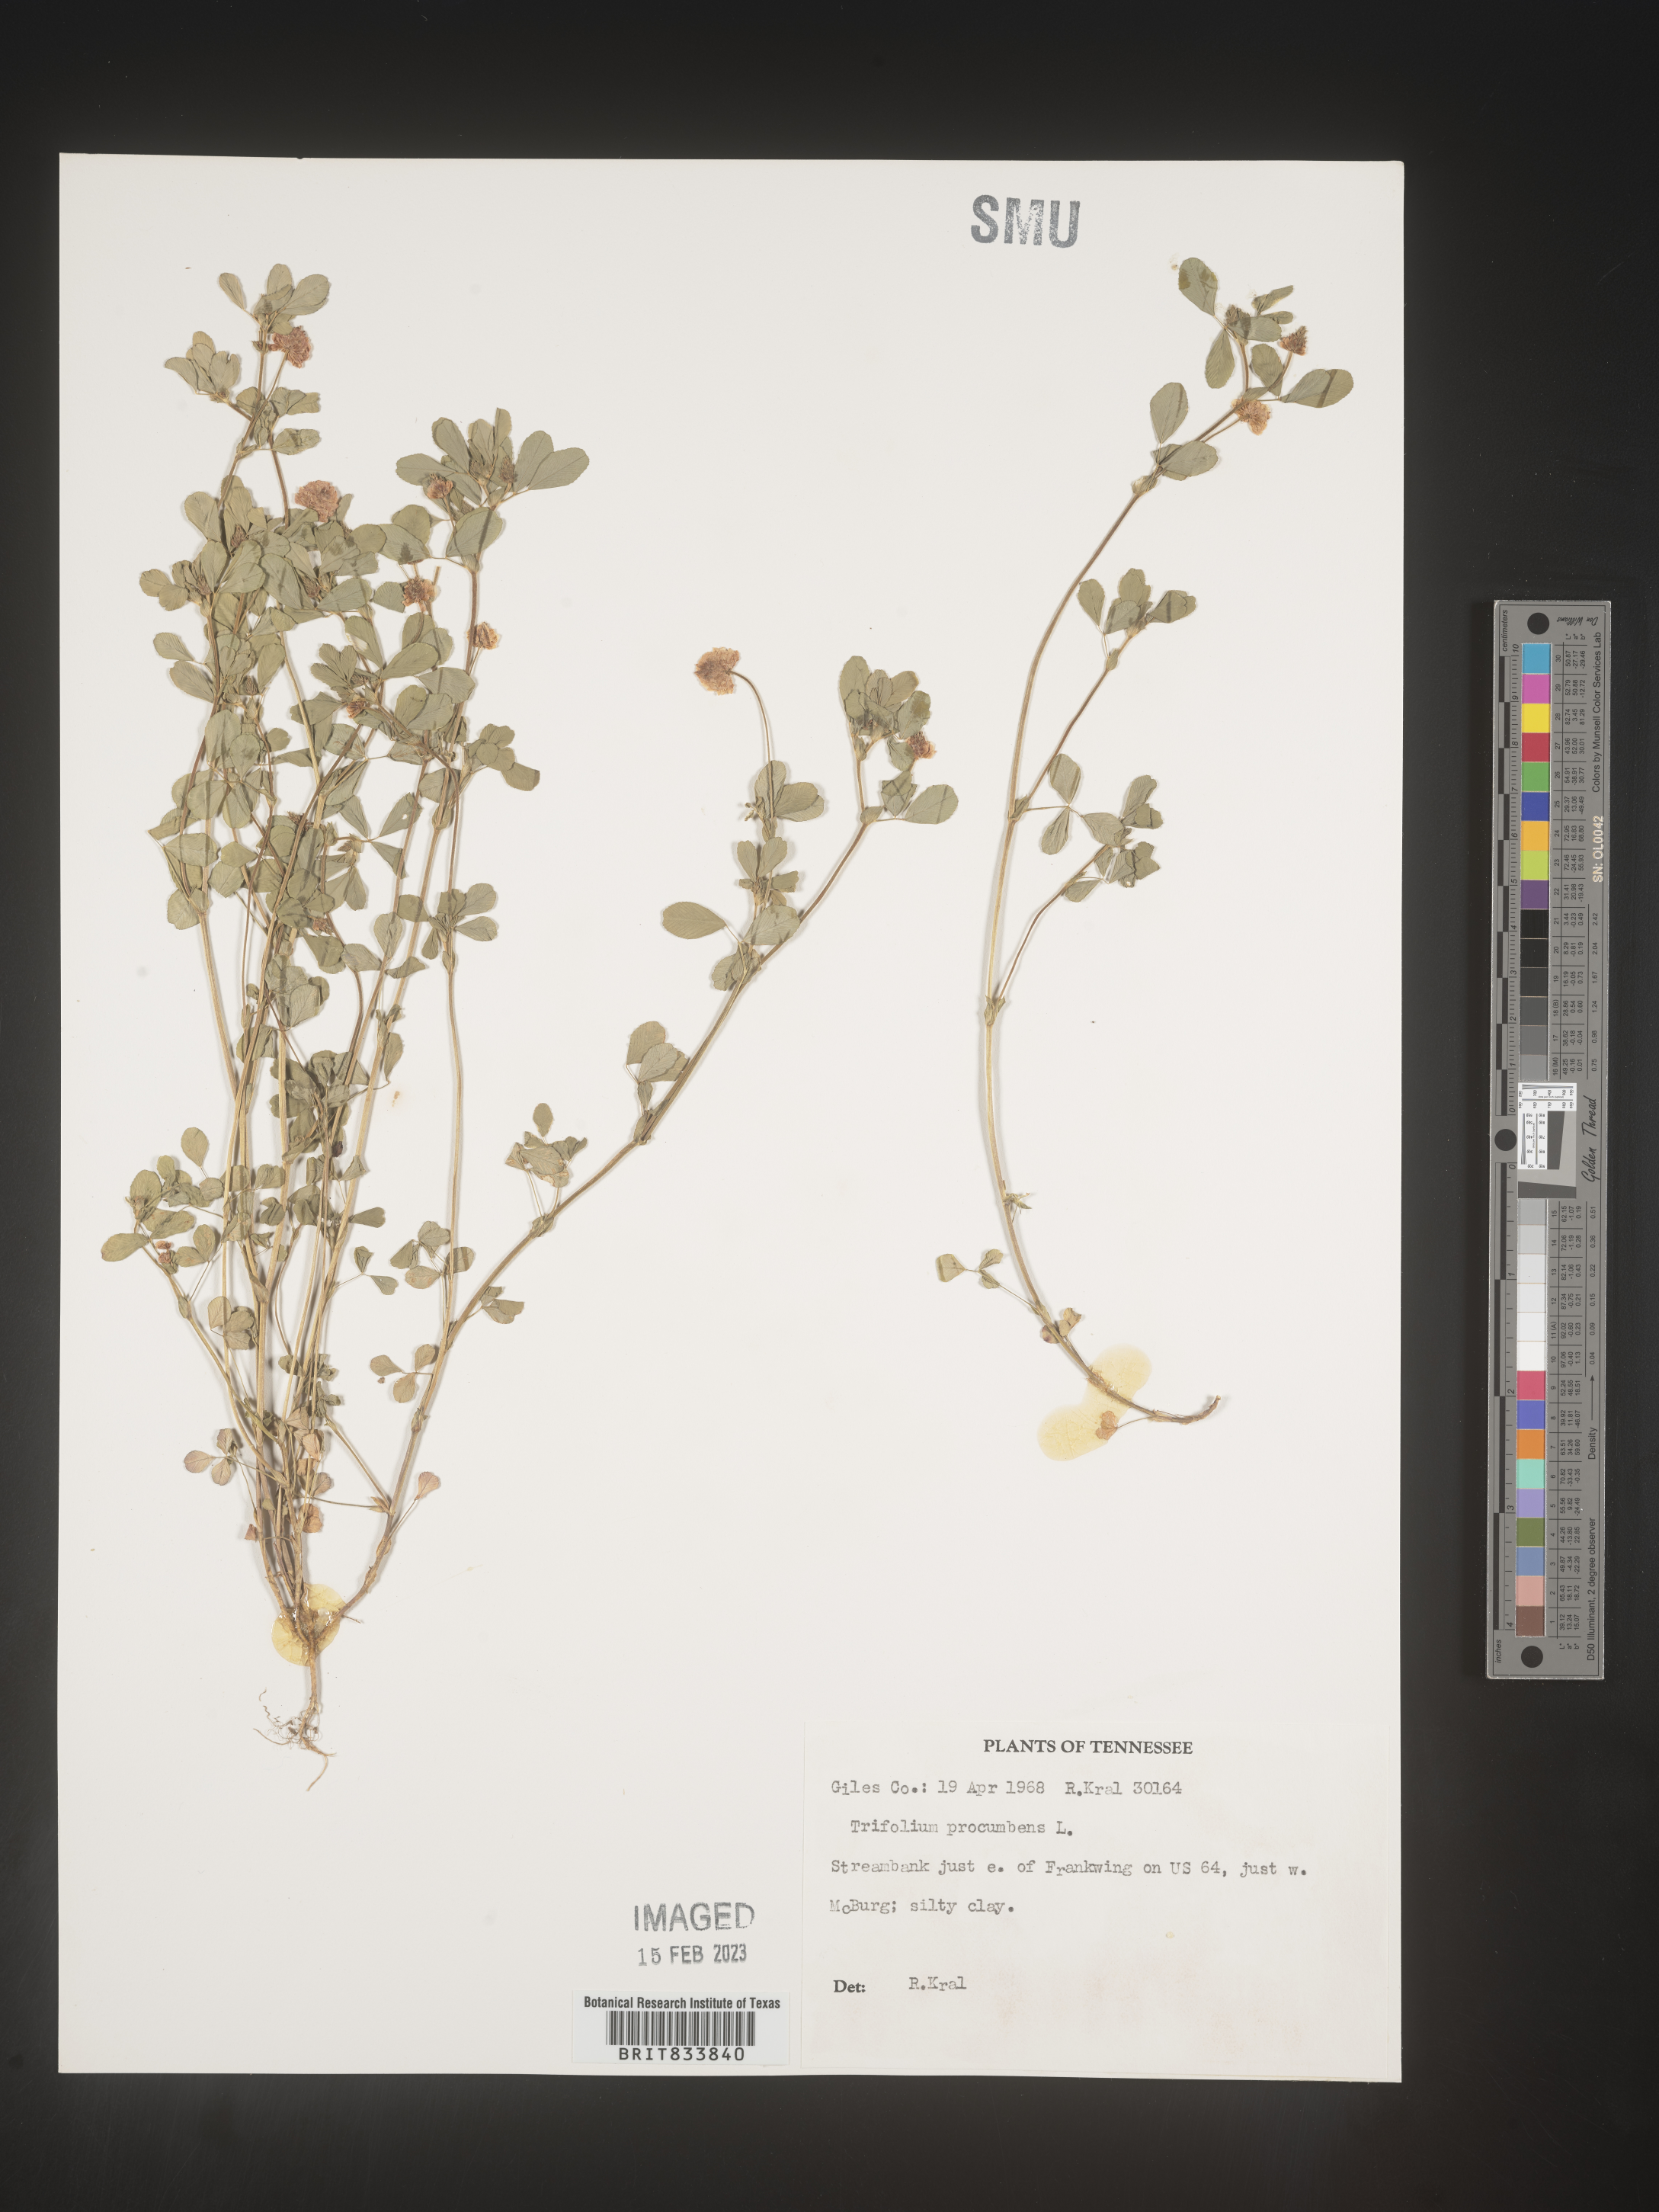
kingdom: Plantae
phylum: Tracheophyta
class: Magnoliopsida
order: Fabales
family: Fabaceae
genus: Trifolium
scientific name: Trifolium campestre
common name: Field clover
